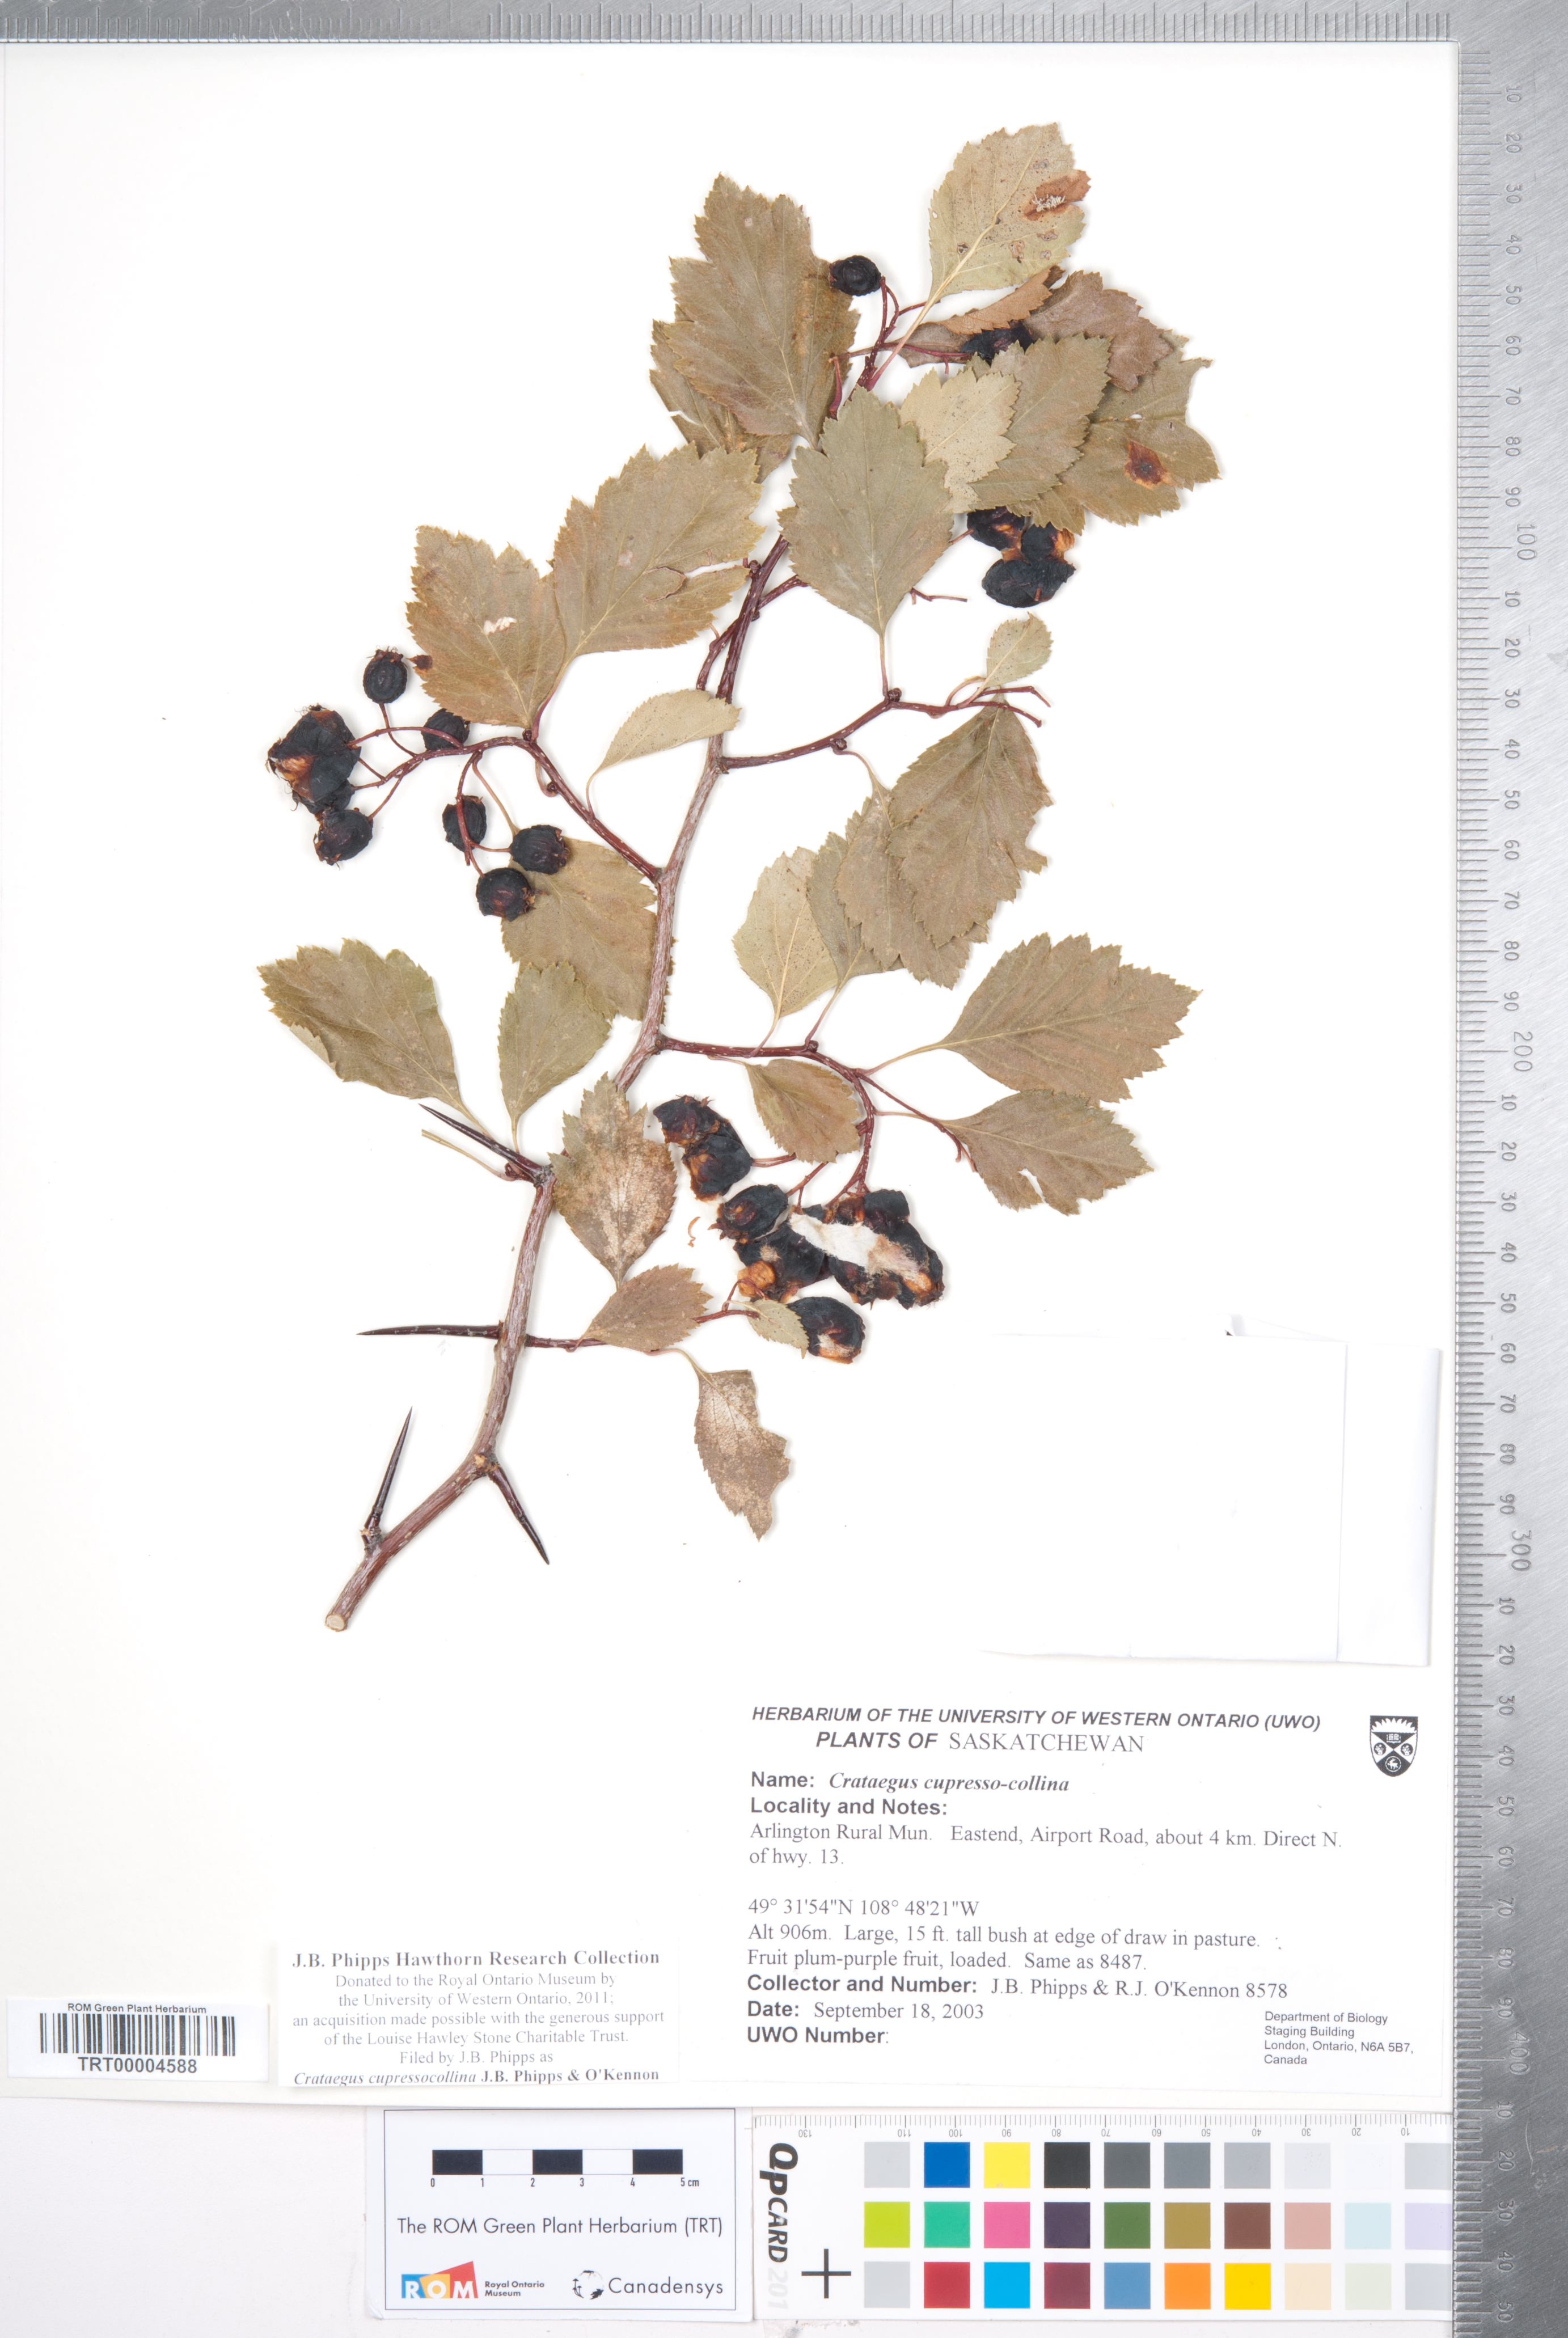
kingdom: Plantae
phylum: Tracheophyta
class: Magnoliopsida
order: Rosales
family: Rosaceae
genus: Crataegus
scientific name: Crataegus cupressocollina
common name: Cypress hills hawthorn
